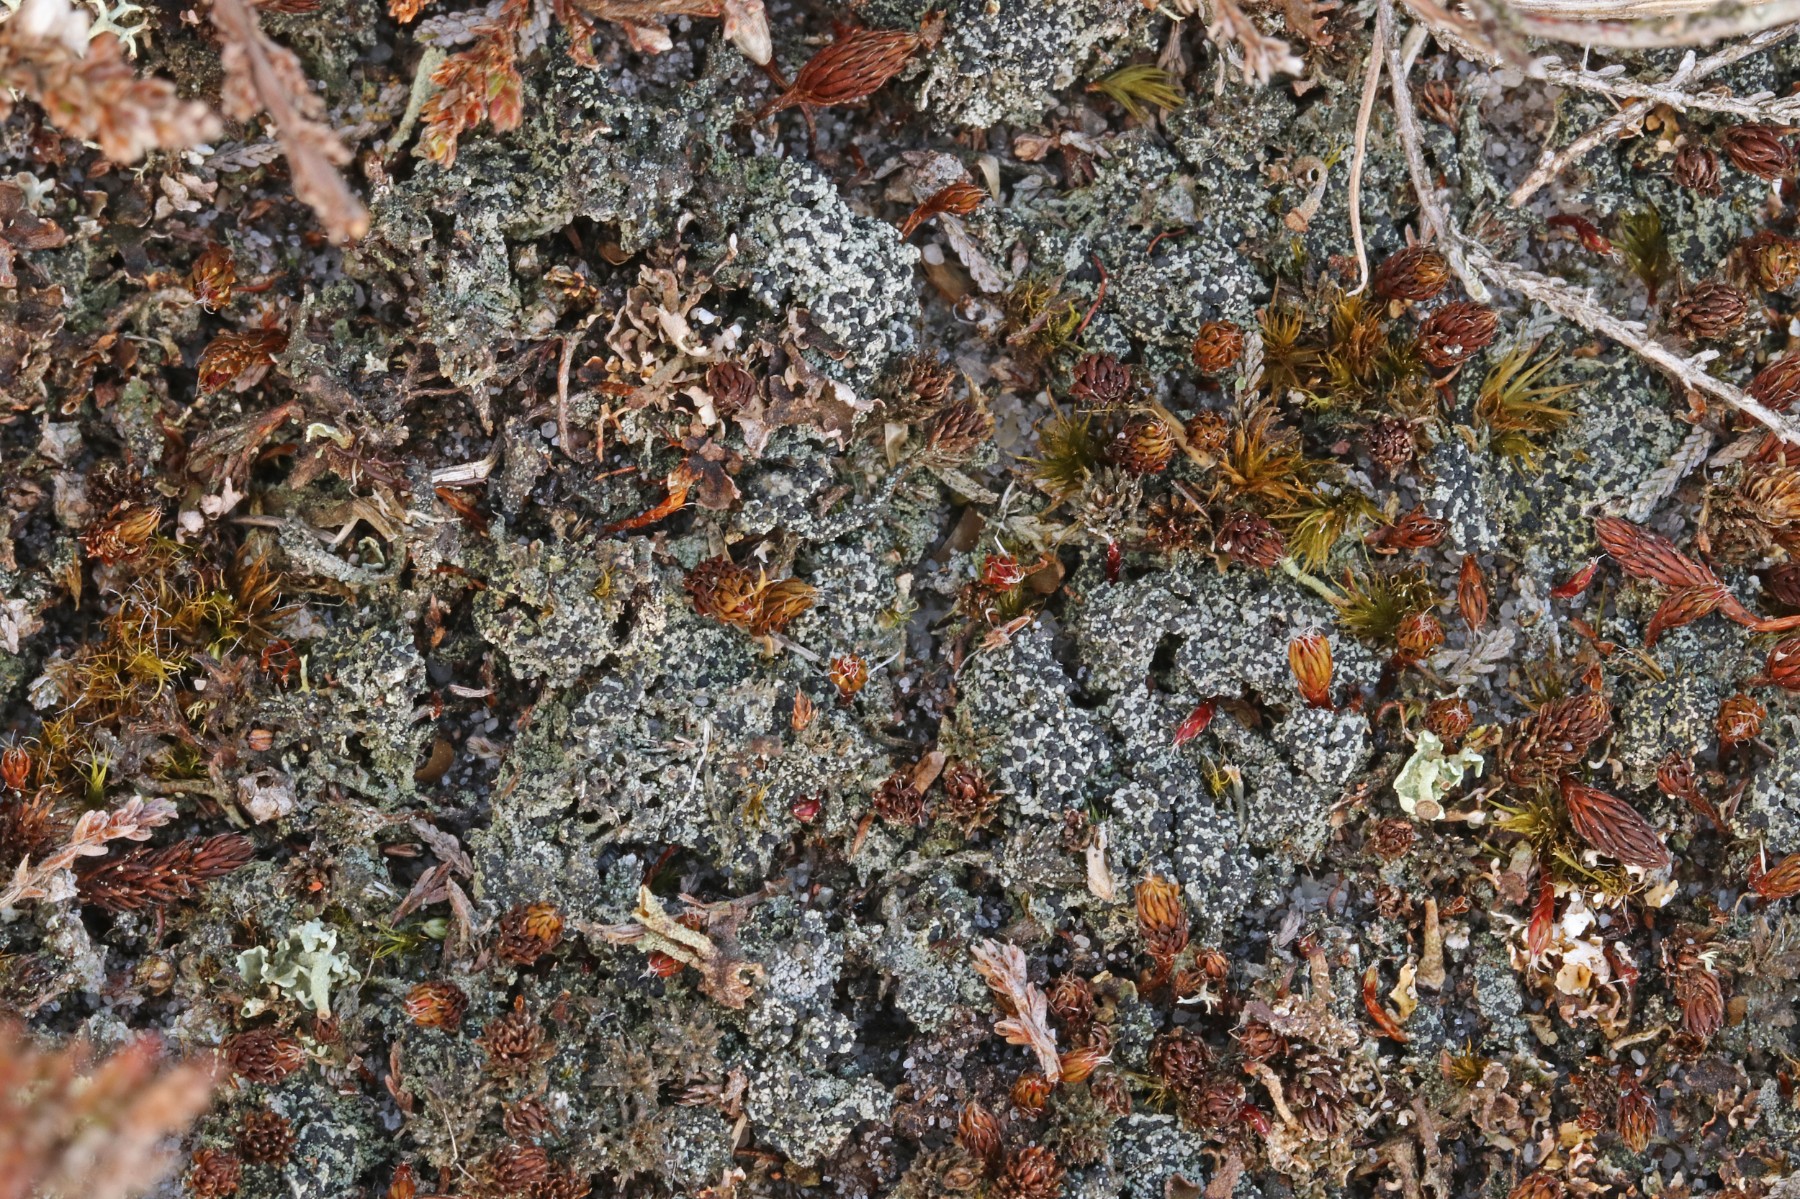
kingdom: Fungi
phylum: Ascomycota
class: Lecanoromycetes
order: Lecanorales
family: Byssolomataceae
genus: Micarea
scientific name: Micarea lignaria
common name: tørve-knaplav
